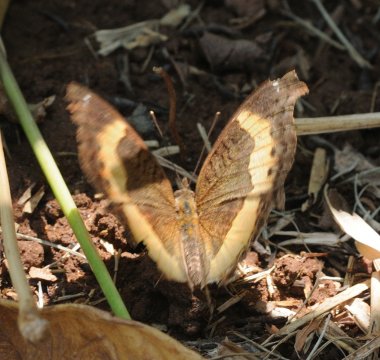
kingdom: Animalia
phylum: Arthropoda
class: Insecta
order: Lepidoptera
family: Nymphalidae
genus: Junonia
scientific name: Junonia terea
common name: Soldier Pansy
